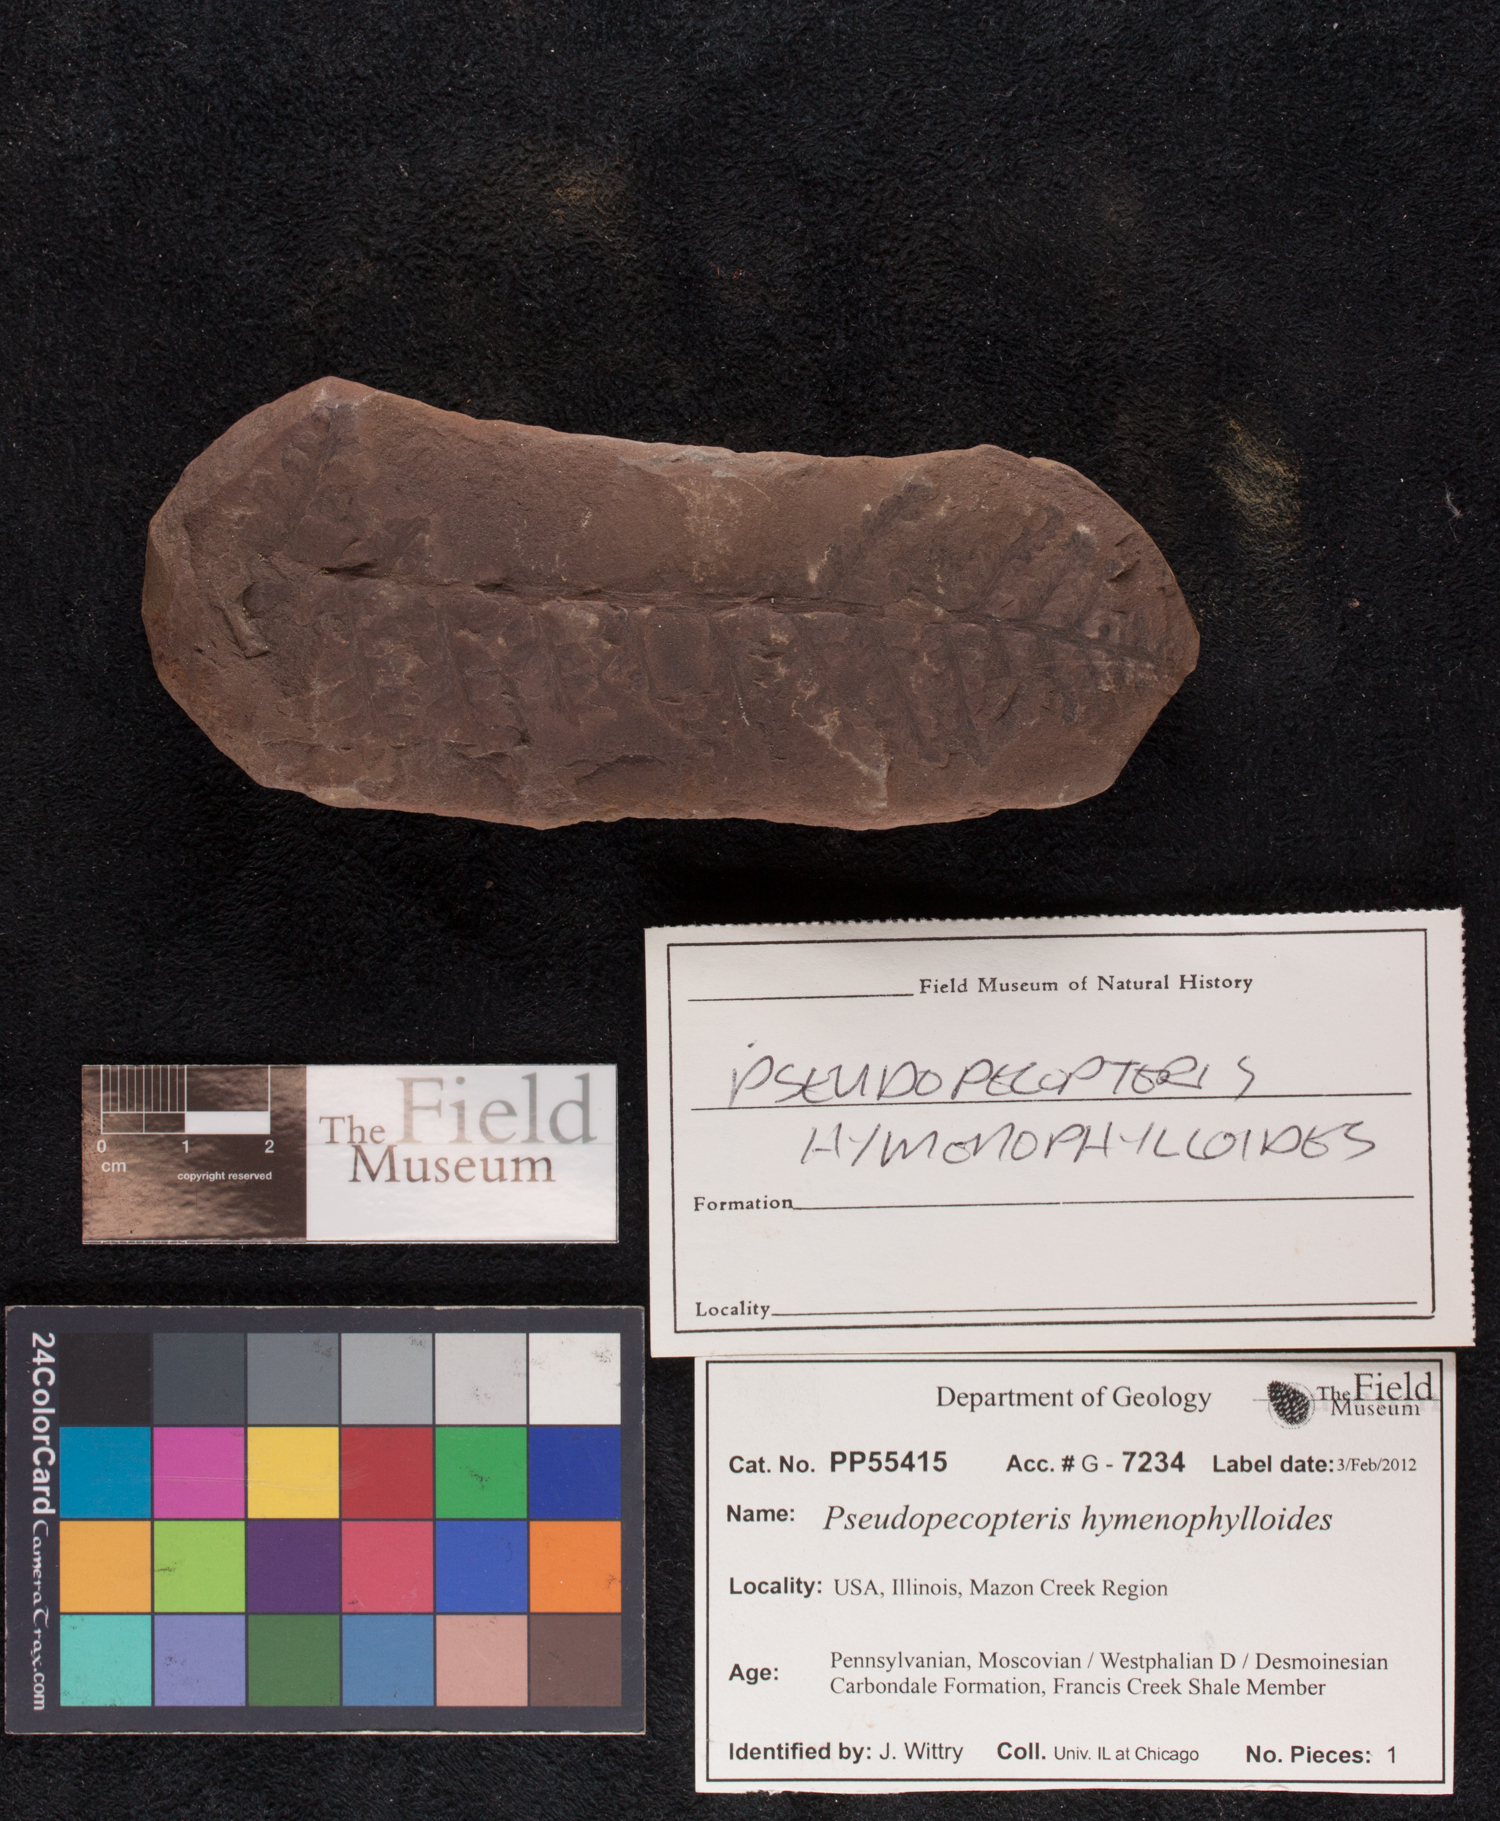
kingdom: Plantae
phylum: Tracheophyta
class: Polypodiopsida
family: Stauropteridaceae
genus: Crossotheca
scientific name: Crossotheca
